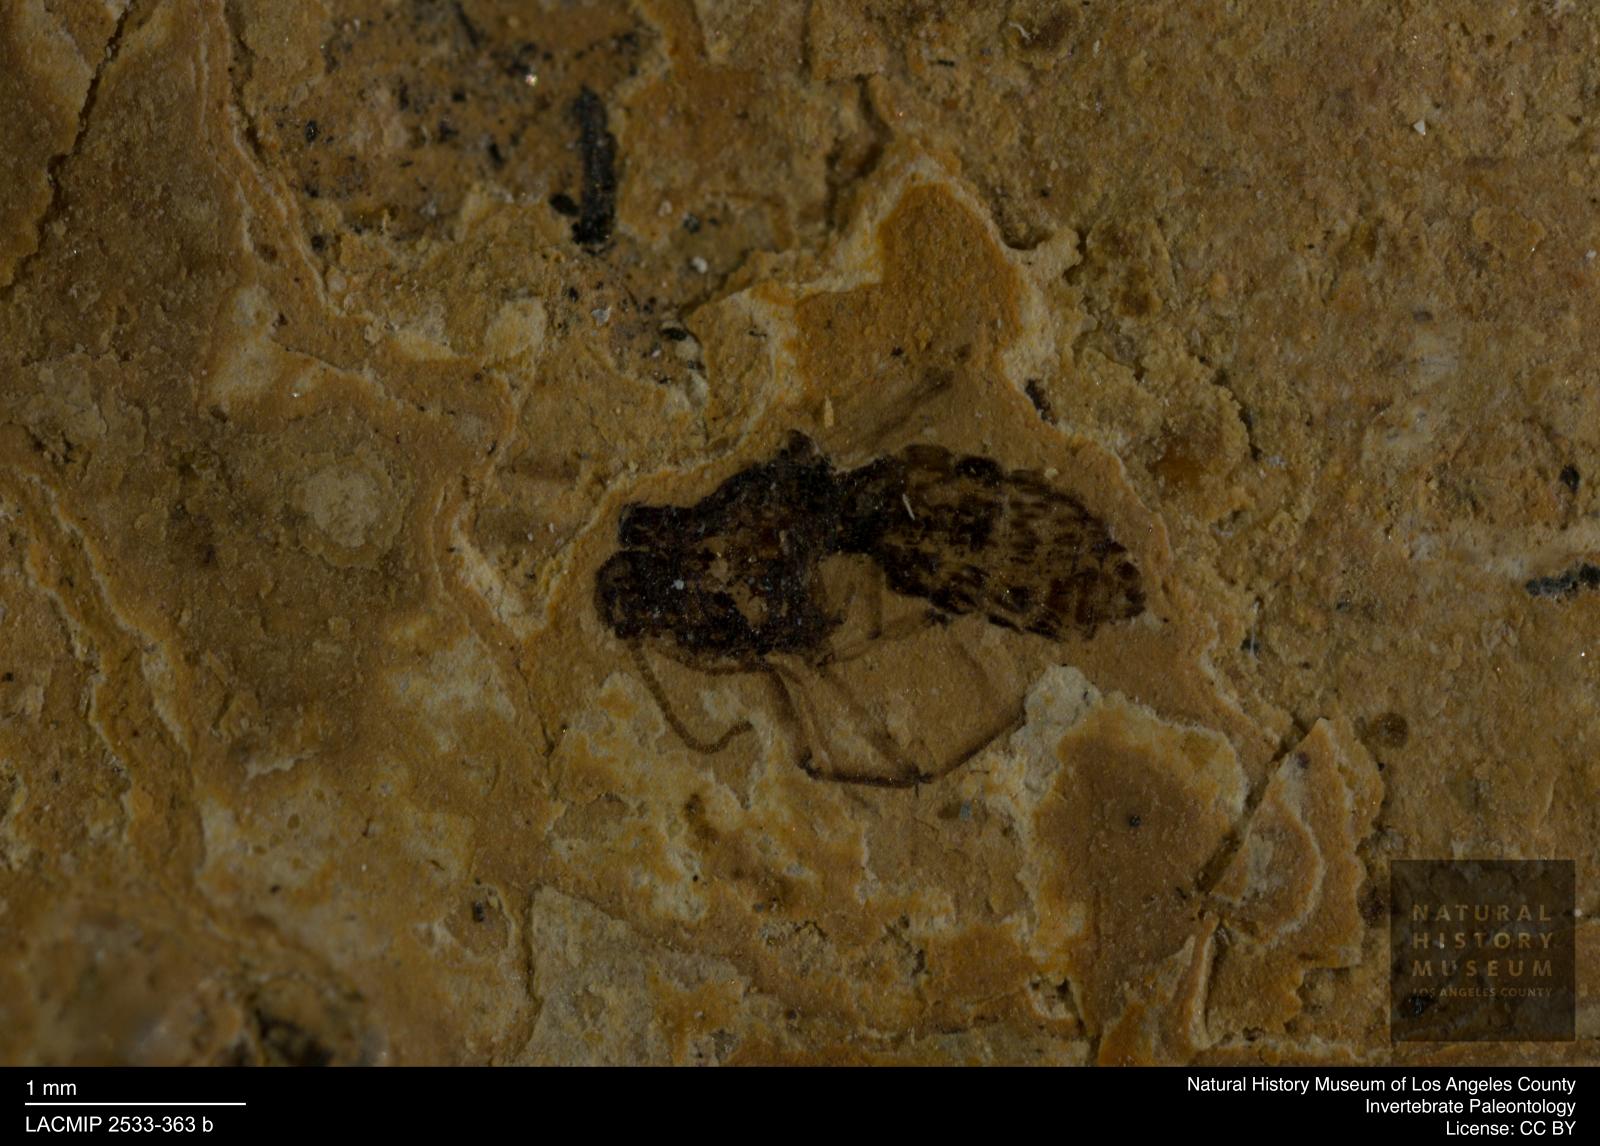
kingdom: Animalia
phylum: Arthropoda
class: Insecta
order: Diptera
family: Ceratopogonidae
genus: Culicoides
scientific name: Culicoides elongatulus
